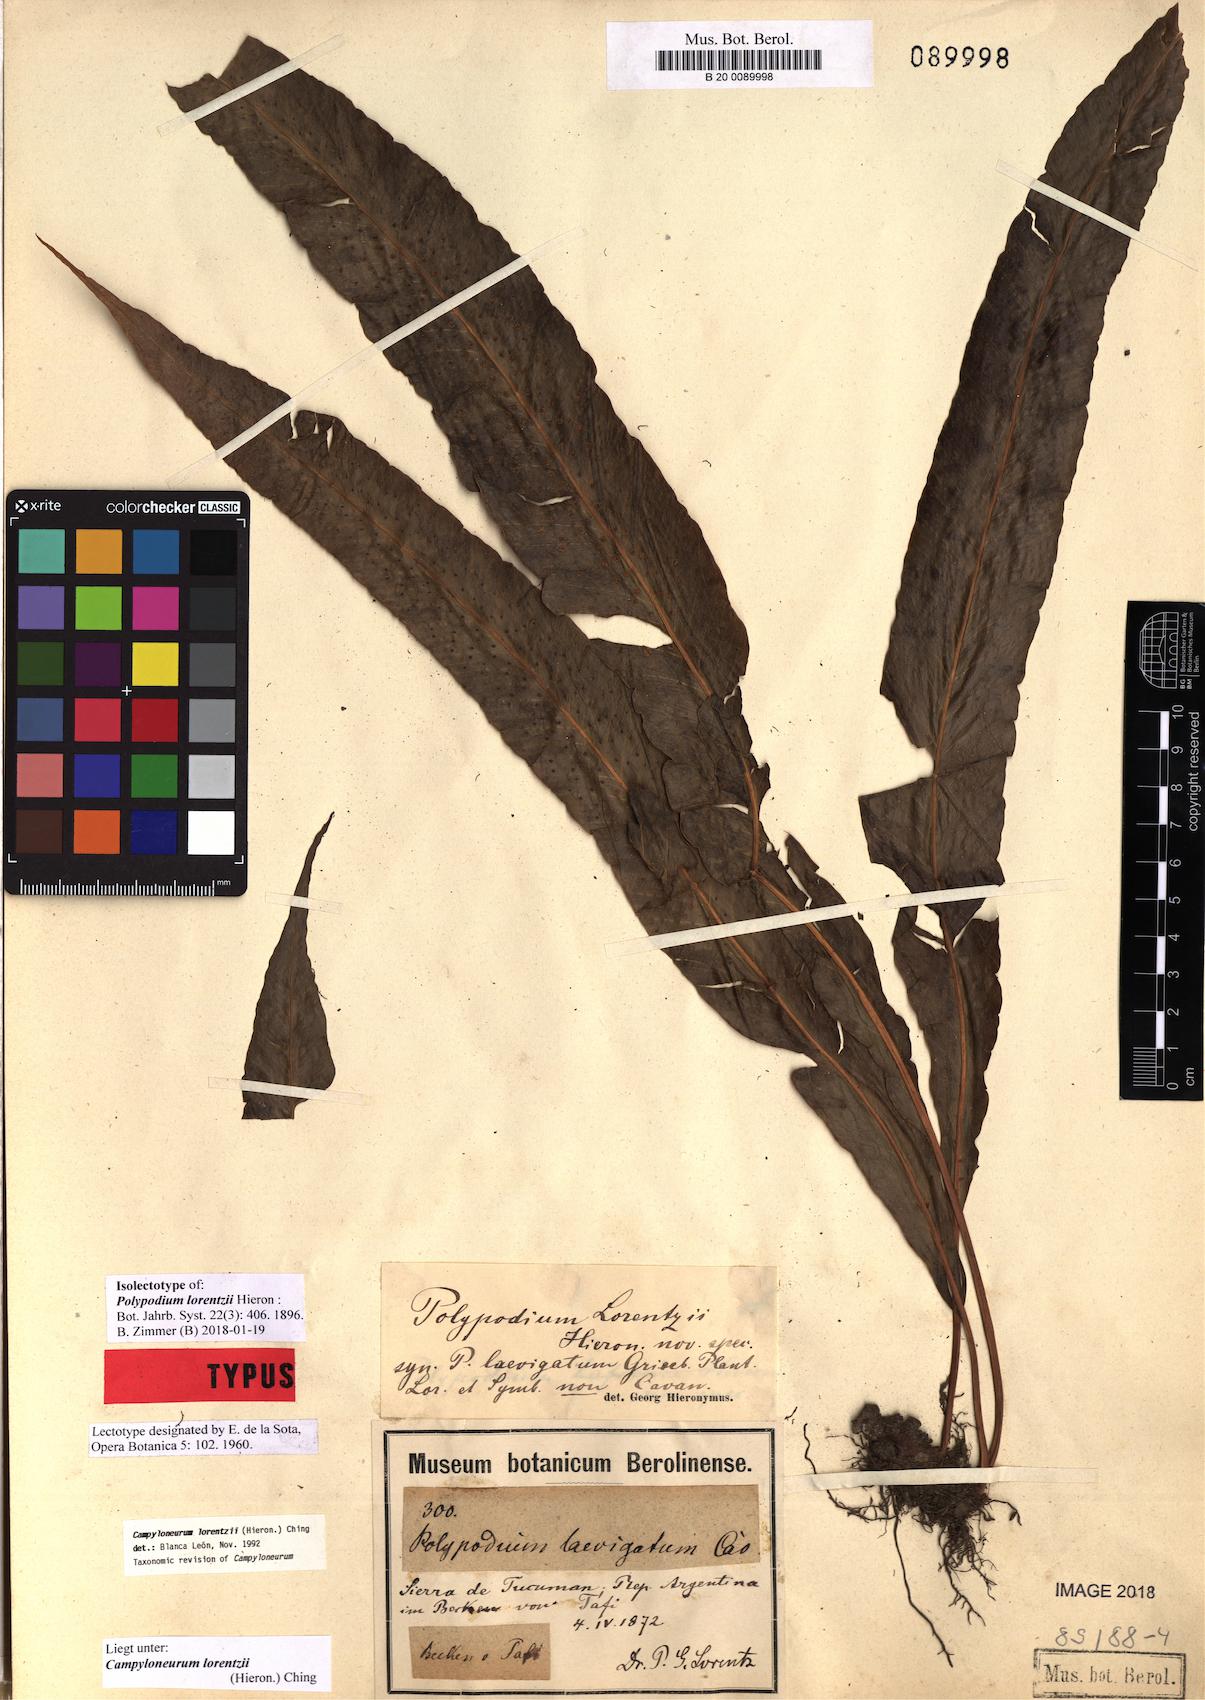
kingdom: Plantae
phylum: Tracheophyta
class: Polypodiopsida
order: Polypodiales
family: Polypodiaceae
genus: Campyloneurum
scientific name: Campyloneurum lorentzii
